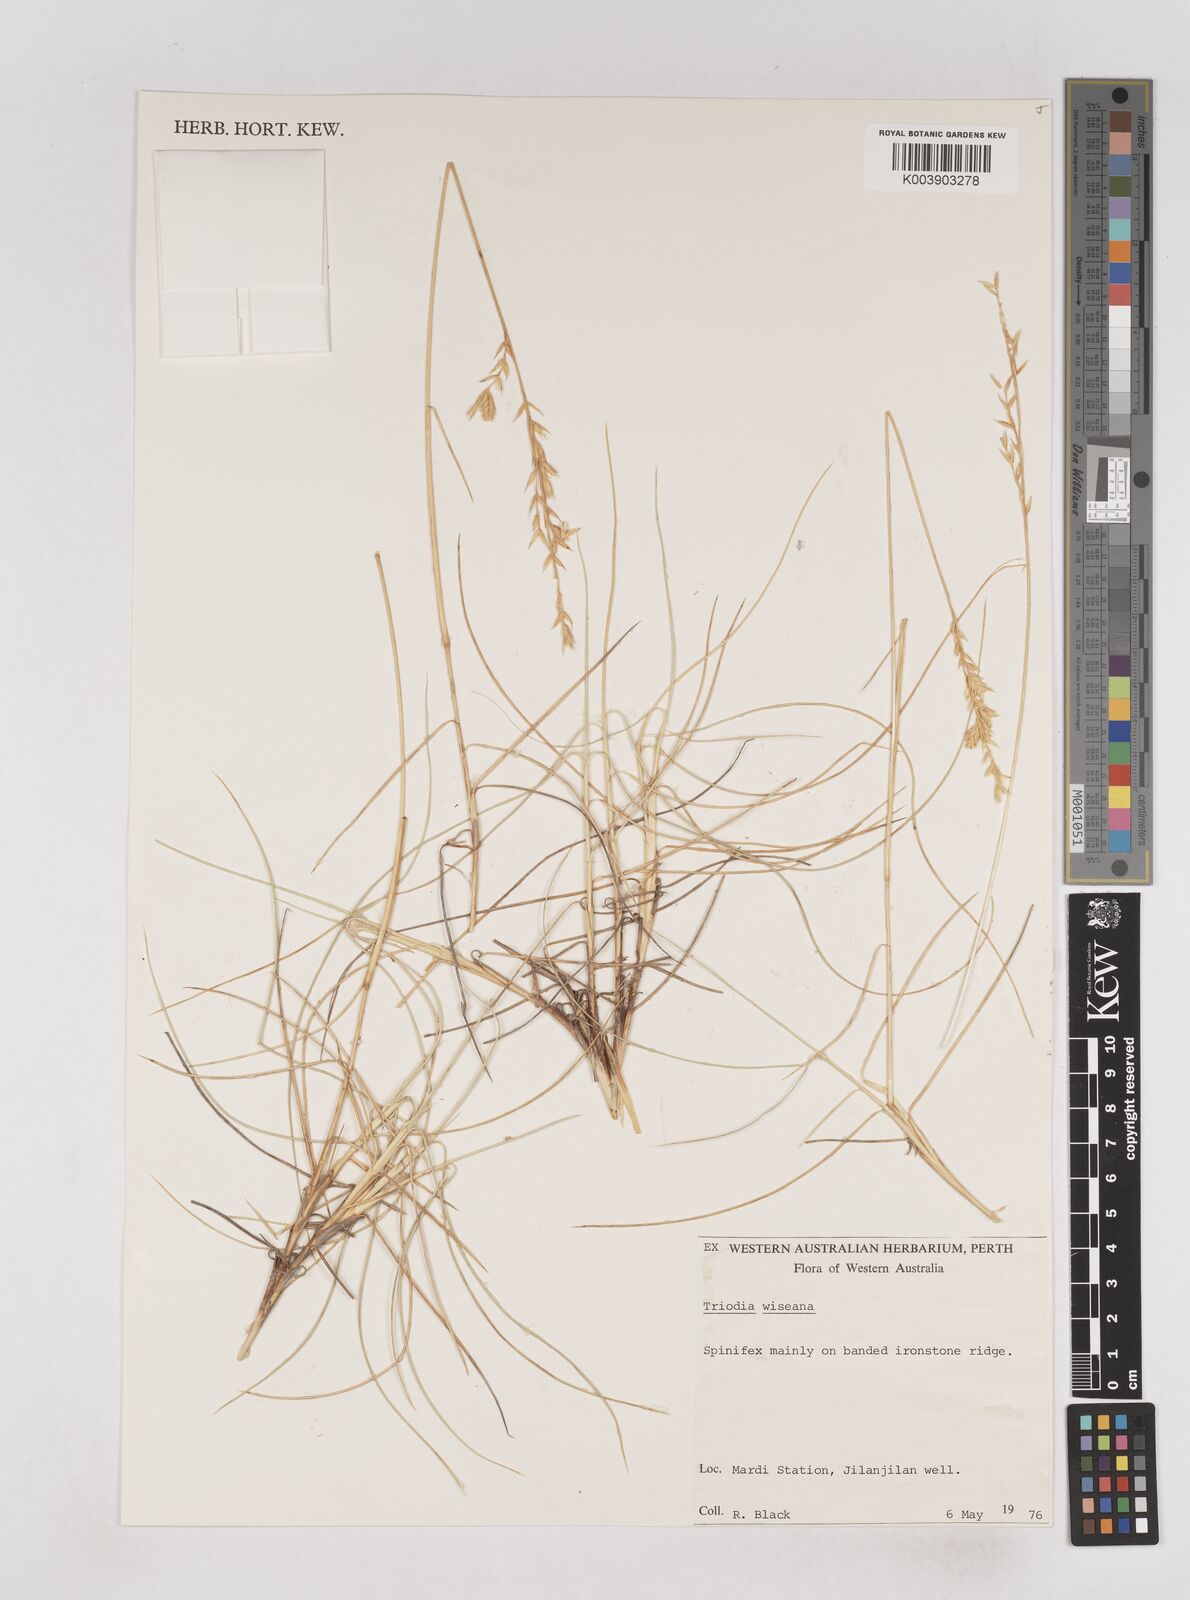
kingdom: Plantae
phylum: Tracheophyta
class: Liliopsida
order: Poales
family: Poaceae
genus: Triodia
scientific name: Triodia wiseana
